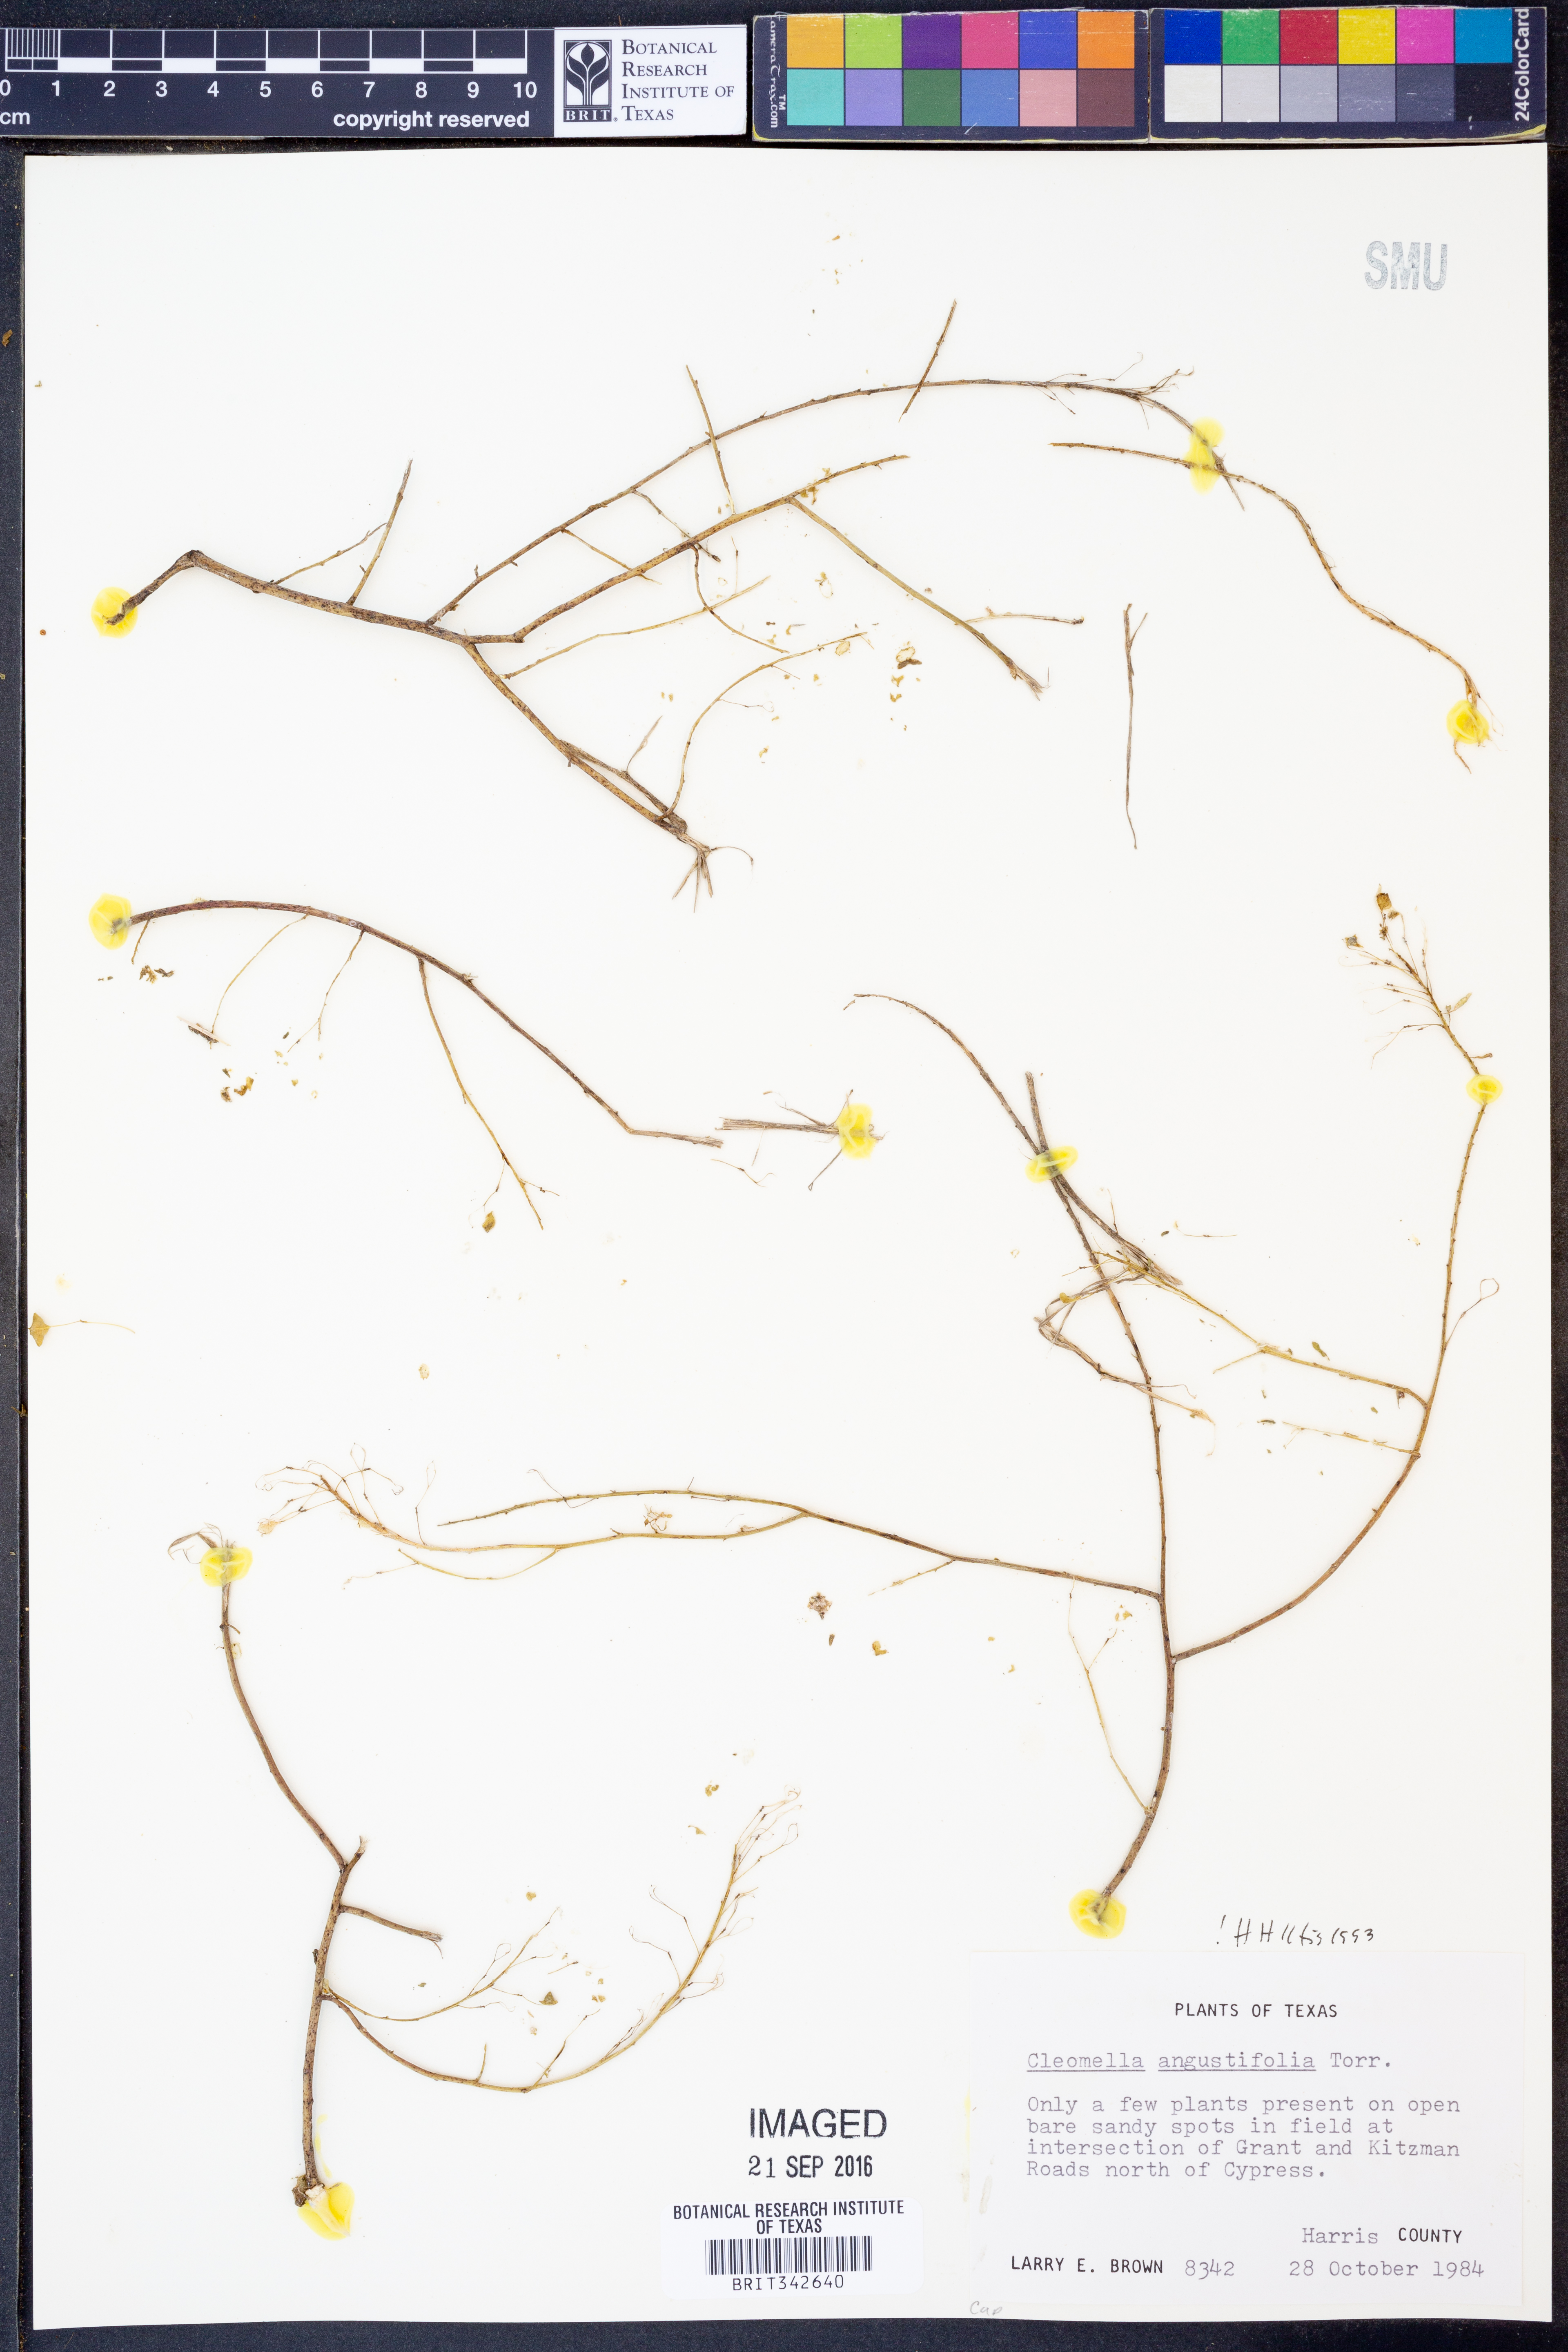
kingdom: Plantae
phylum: Tracheophyta
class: Magnoliopsida
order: Brassicales
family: Cleomaceae
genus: Cleomella
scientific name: Cleomella angustifolia
